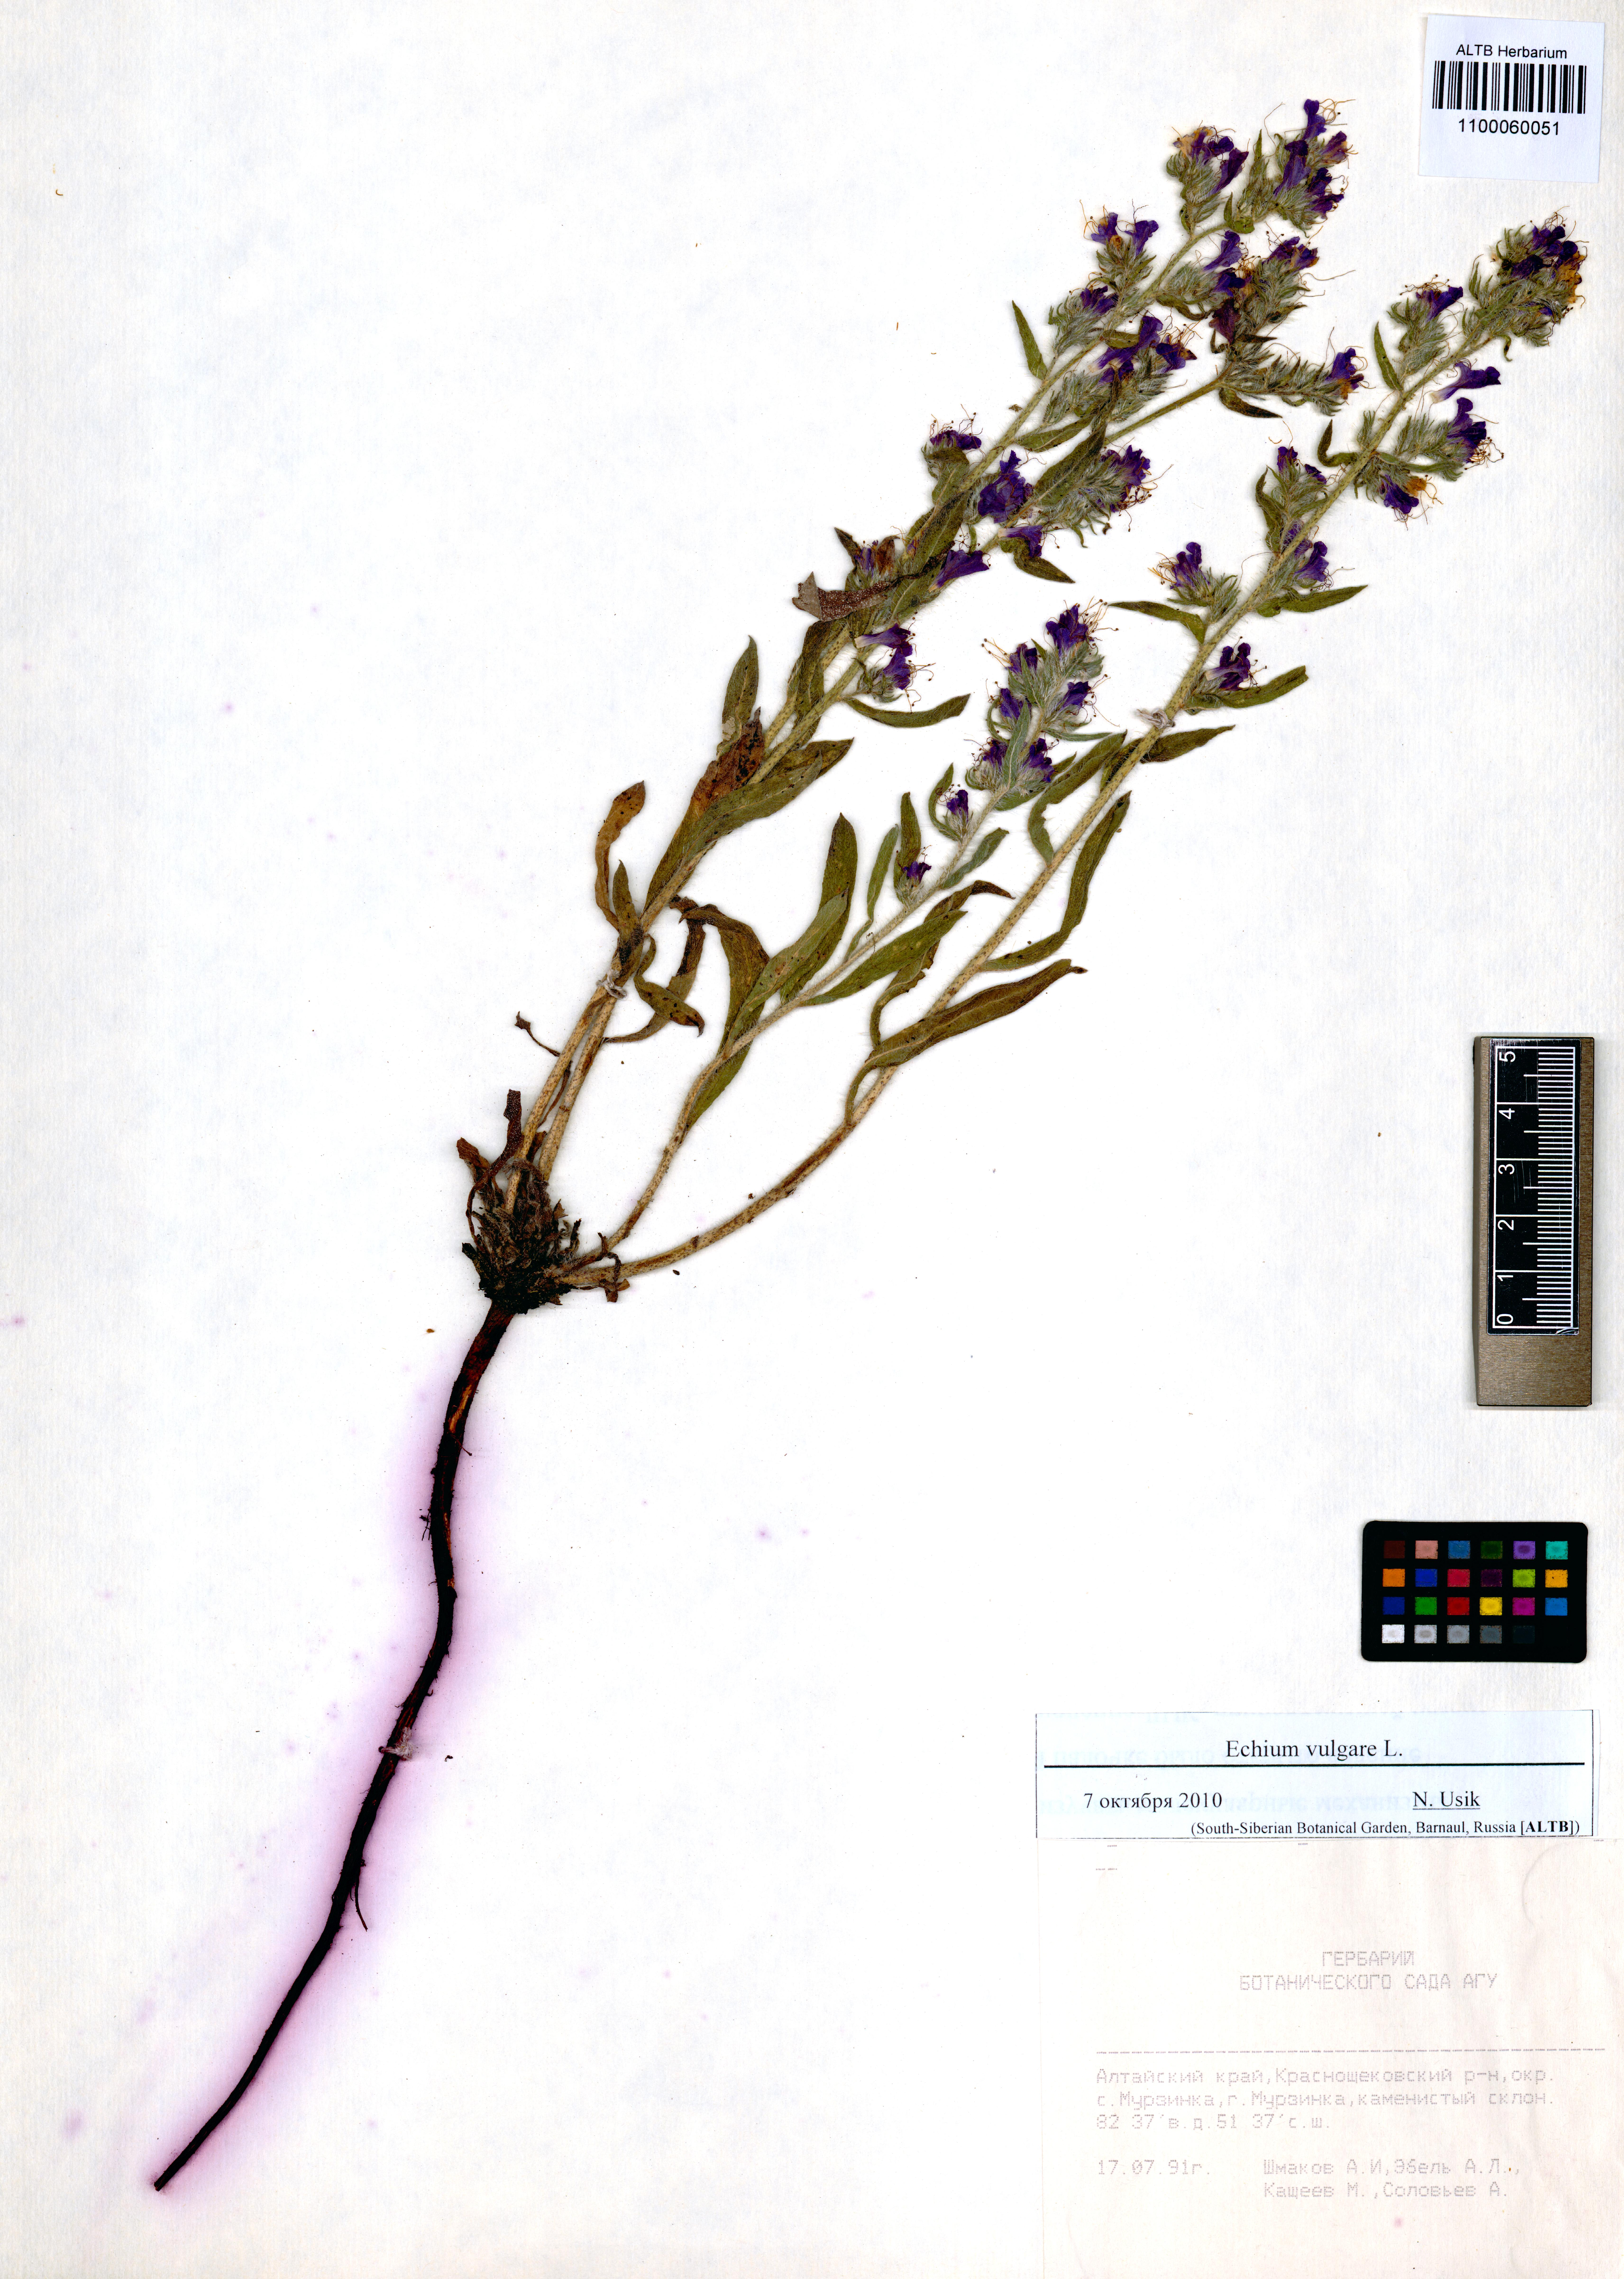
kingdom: Plantae
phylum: Tracheophyta
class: Magnoliopsida
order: Boraginales
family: Boraginaceae
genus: Echium
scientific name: Echium vulgare
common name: Common viper's bugloss
